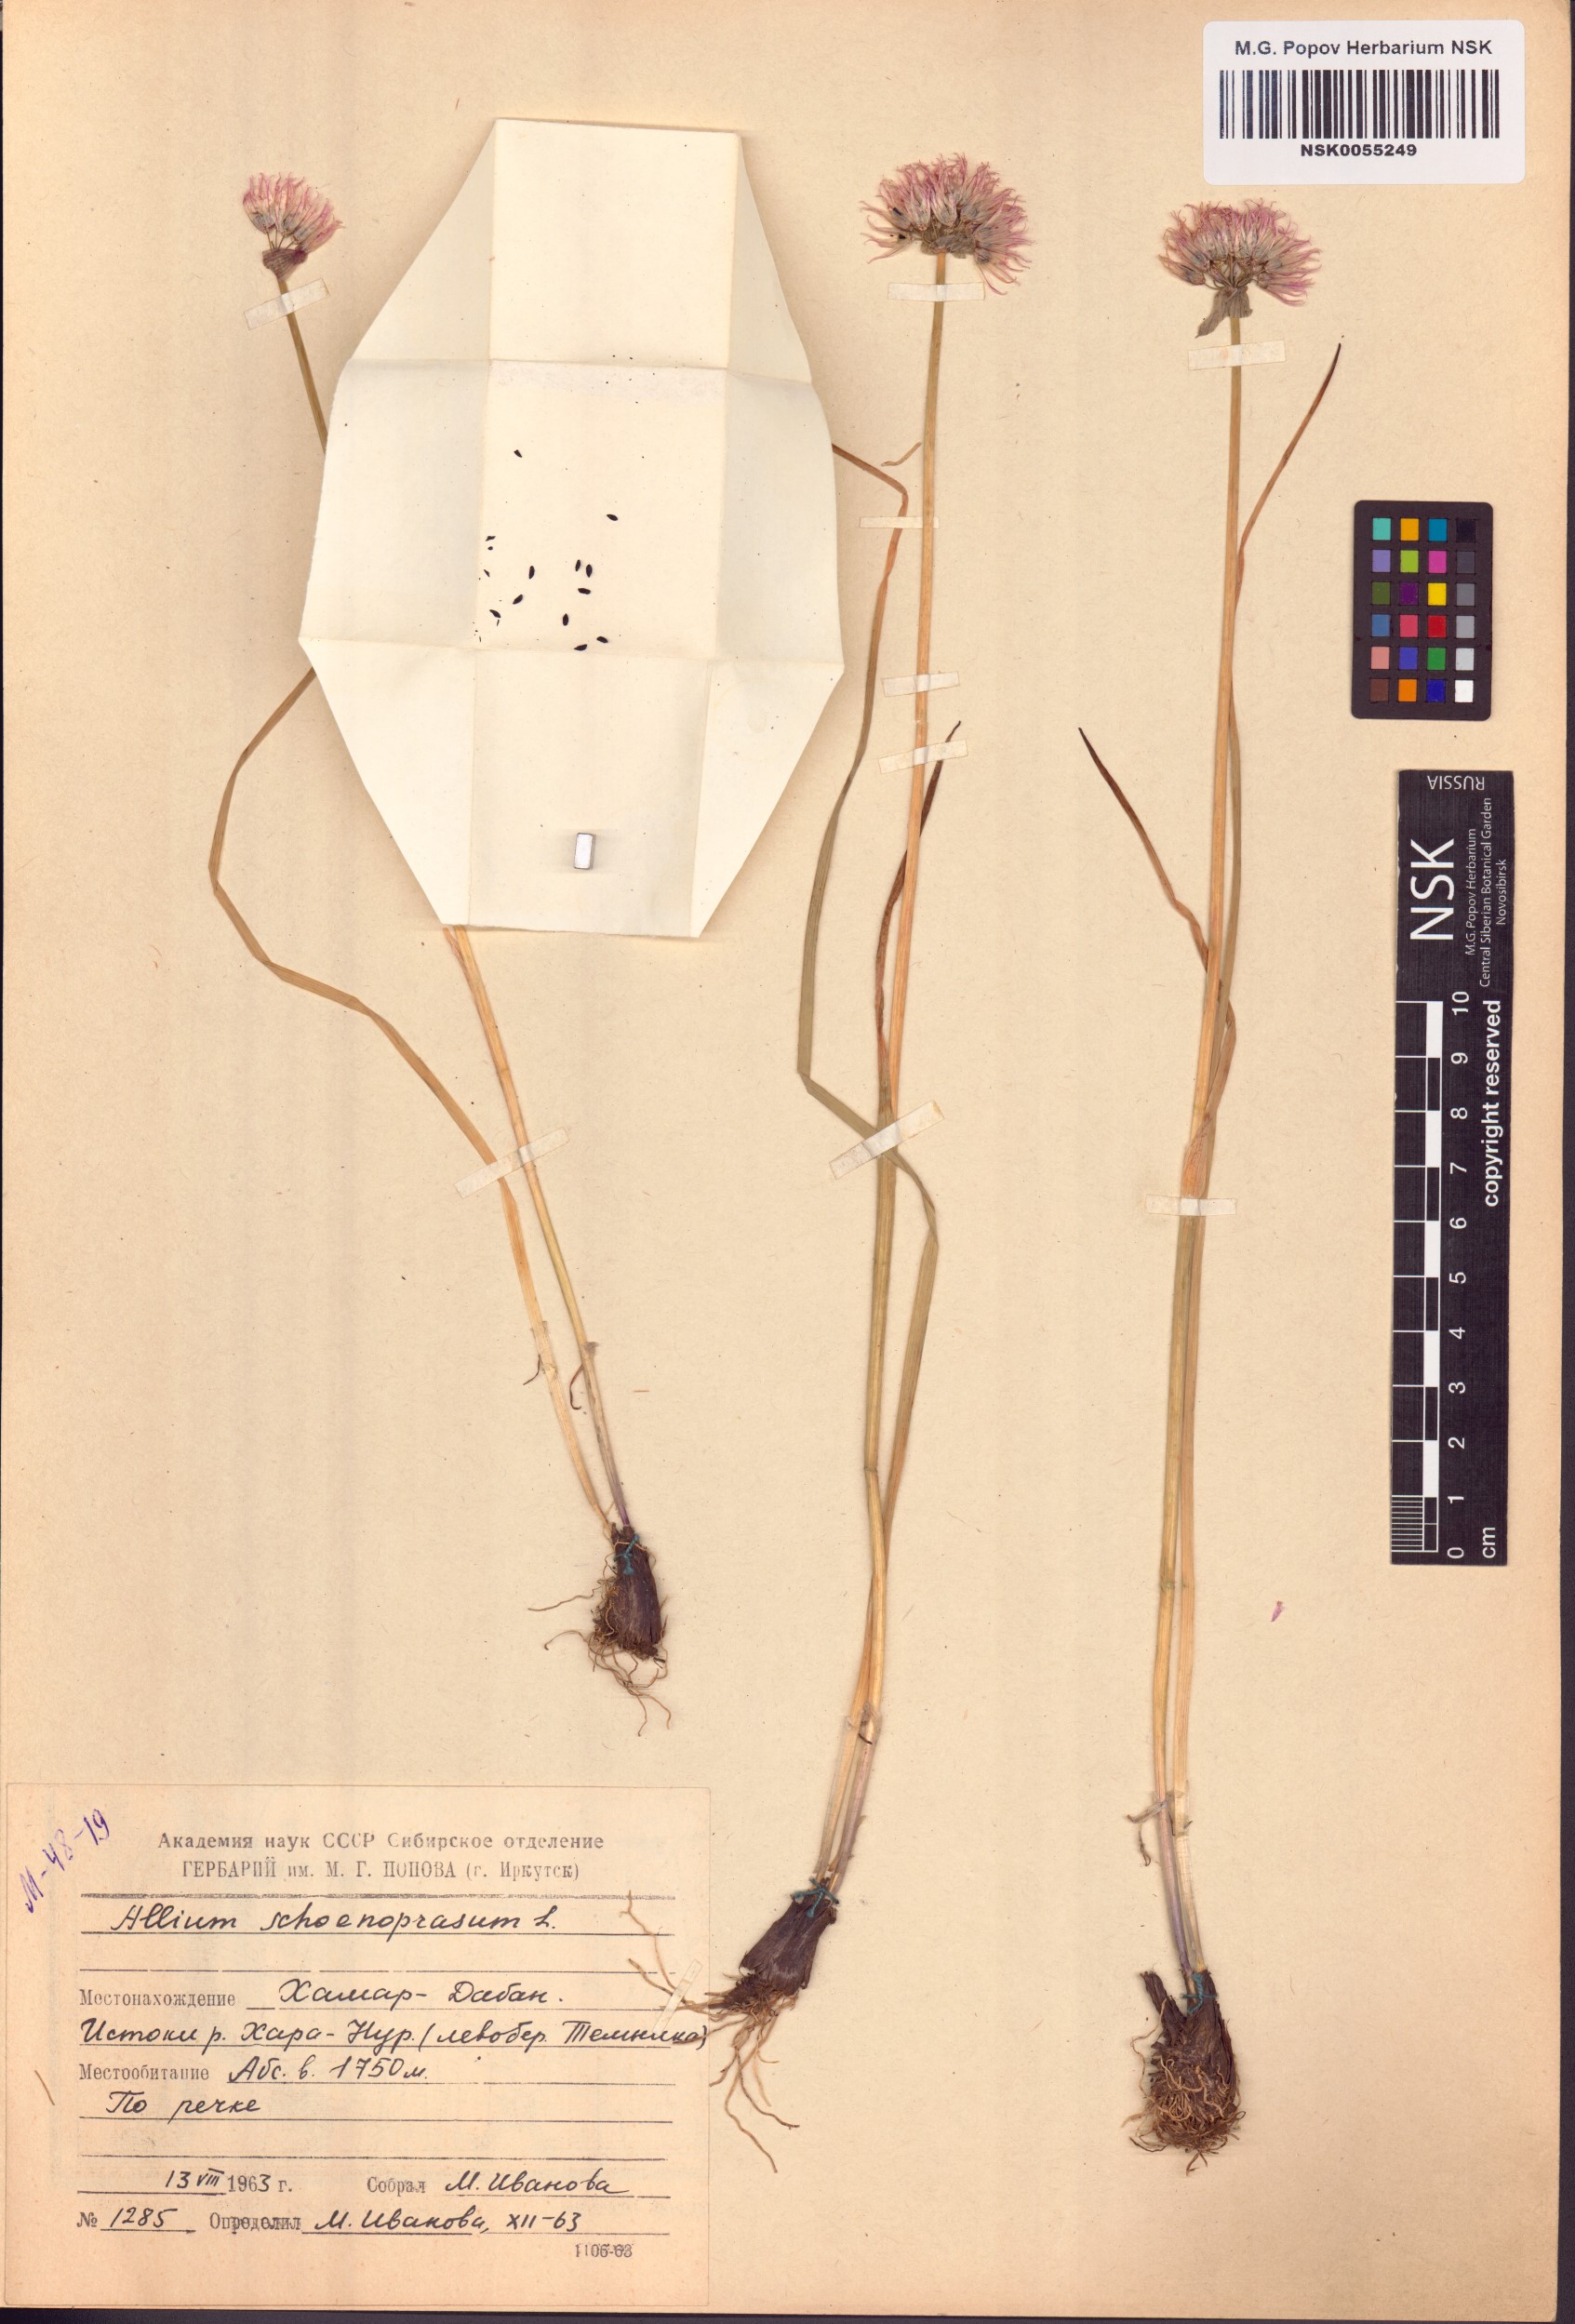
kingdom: Plantae
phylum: Tracheophyta
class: Liliopsida
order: Asparagales
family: Amaryllidaceae
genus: Allium
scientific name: Allium schoenoprasum
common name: Chives
